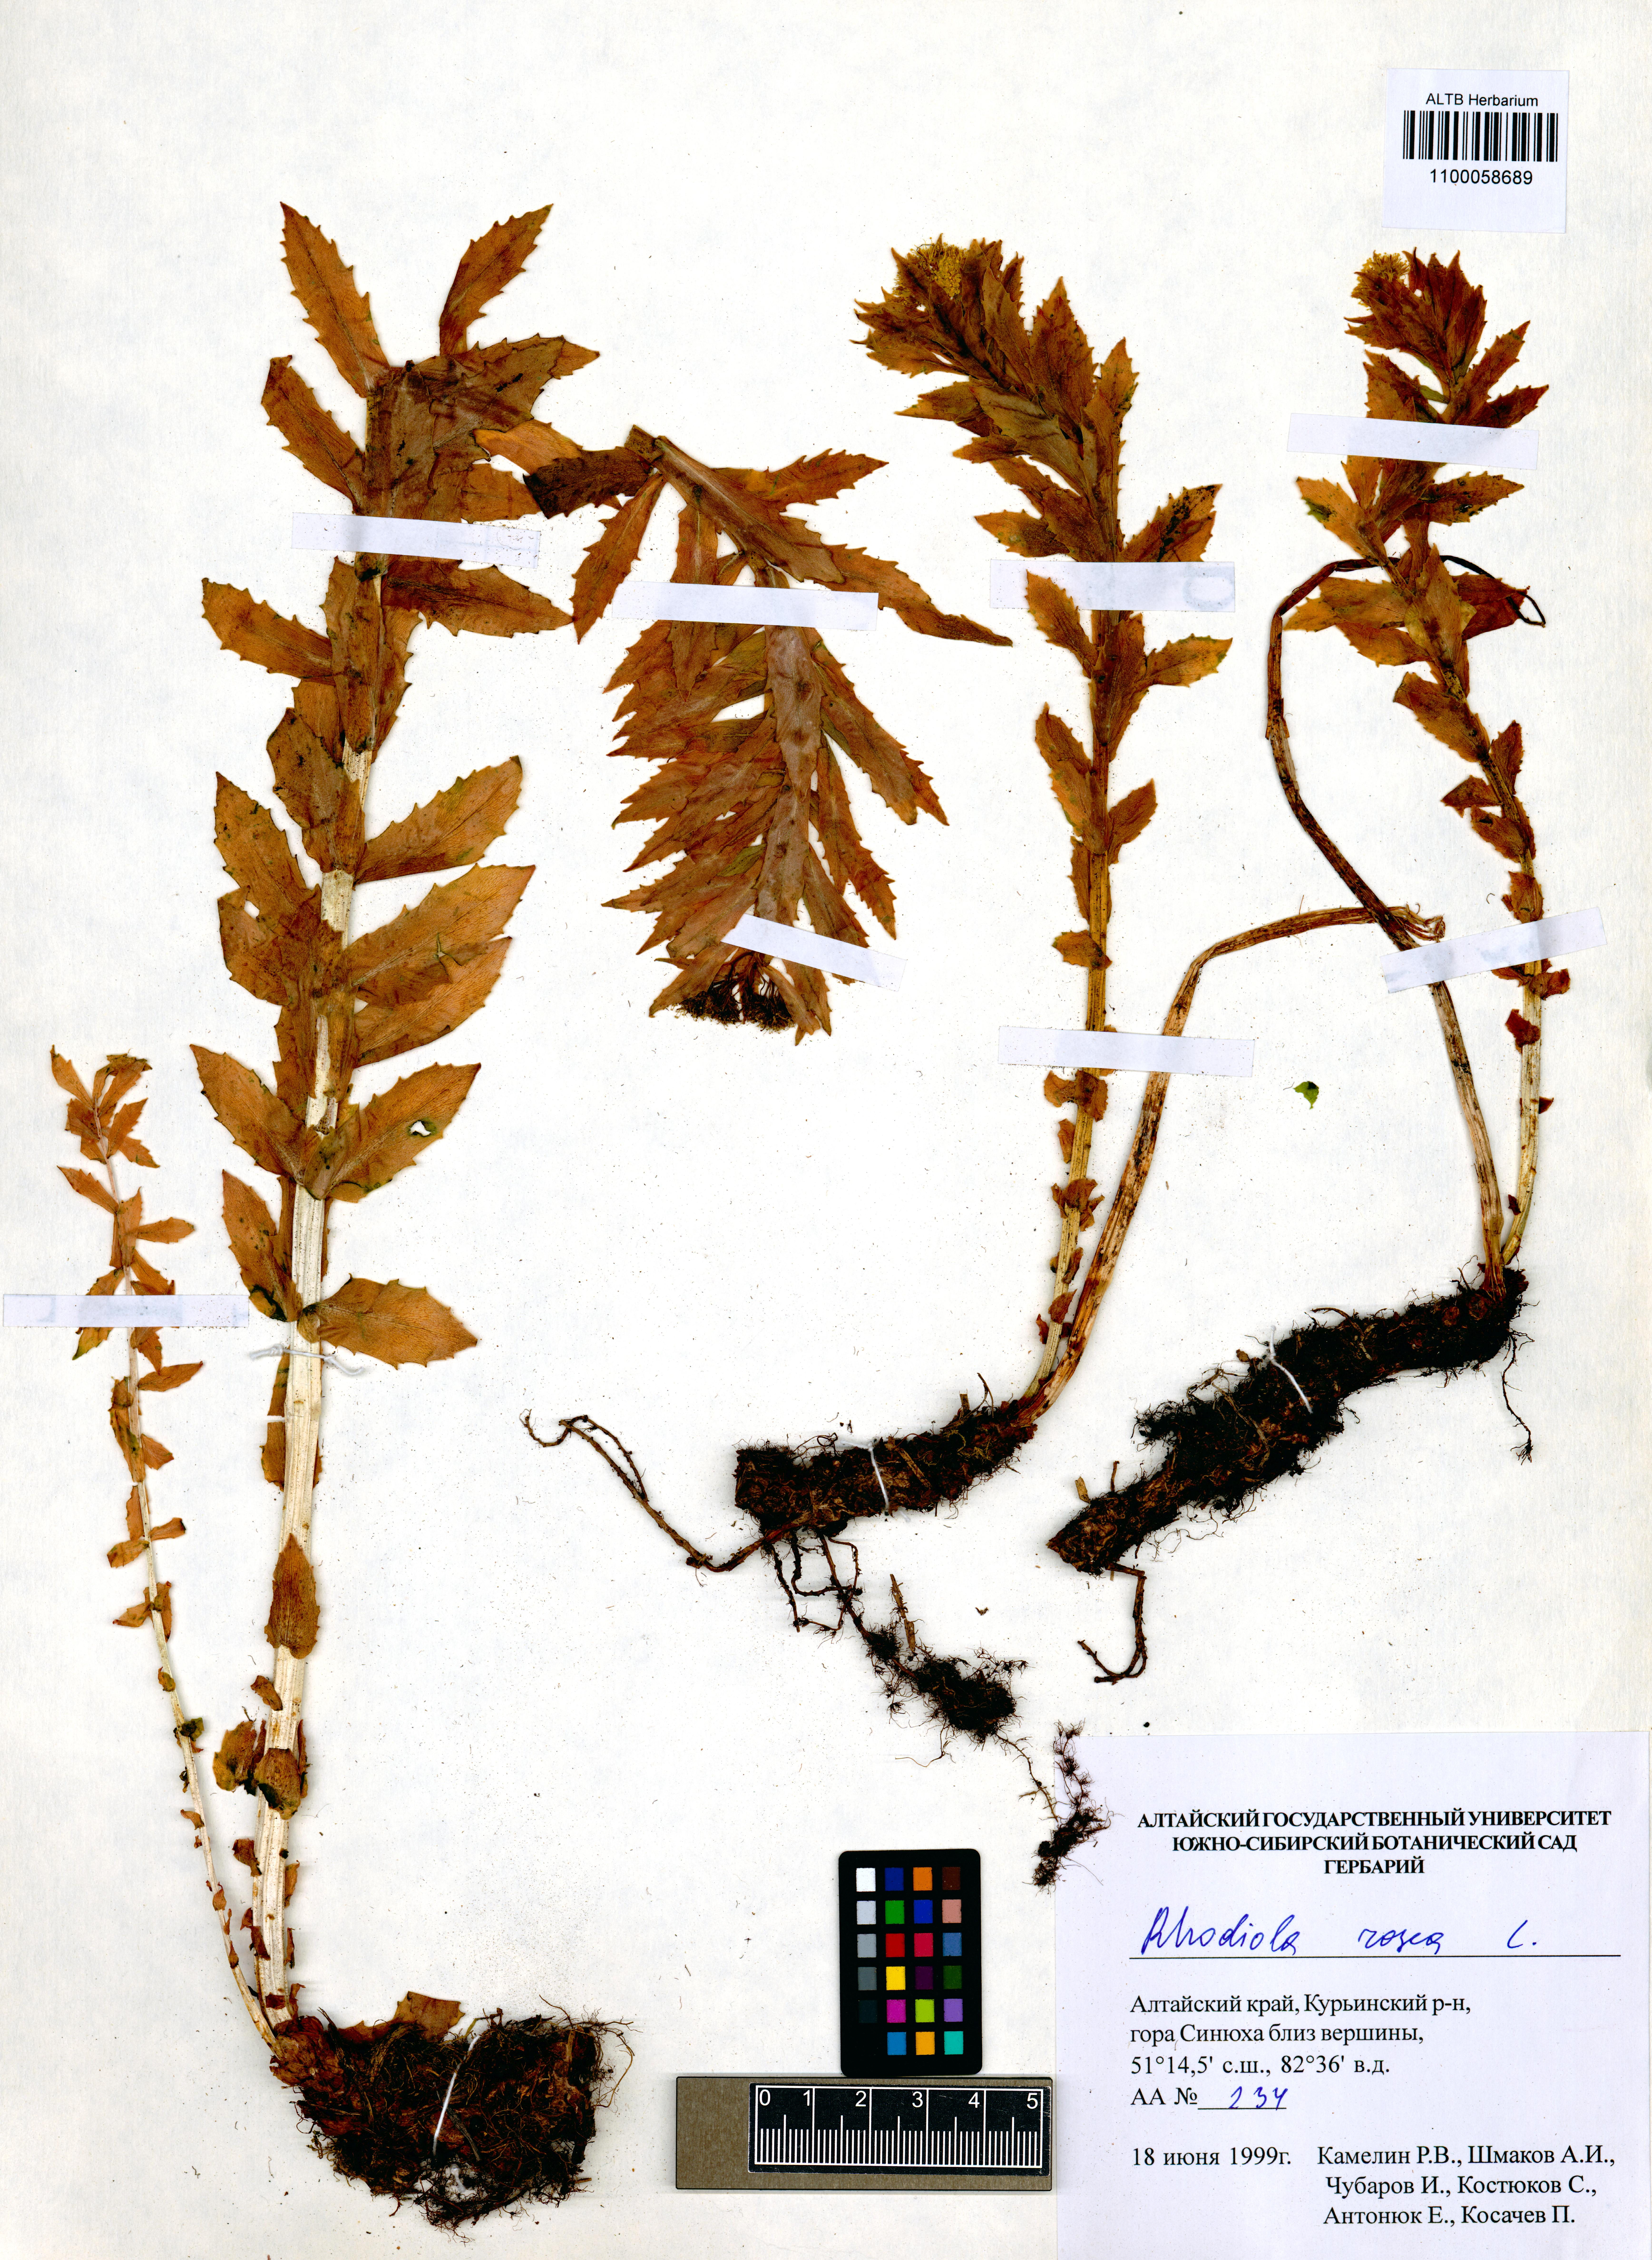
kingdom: Plantae
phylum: Tracheophyta
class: Magnoliopsida
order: Saxifragales
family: Crassulaceae
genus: Rhodiola
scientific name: Rhodiola rosea
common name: Roseroot
